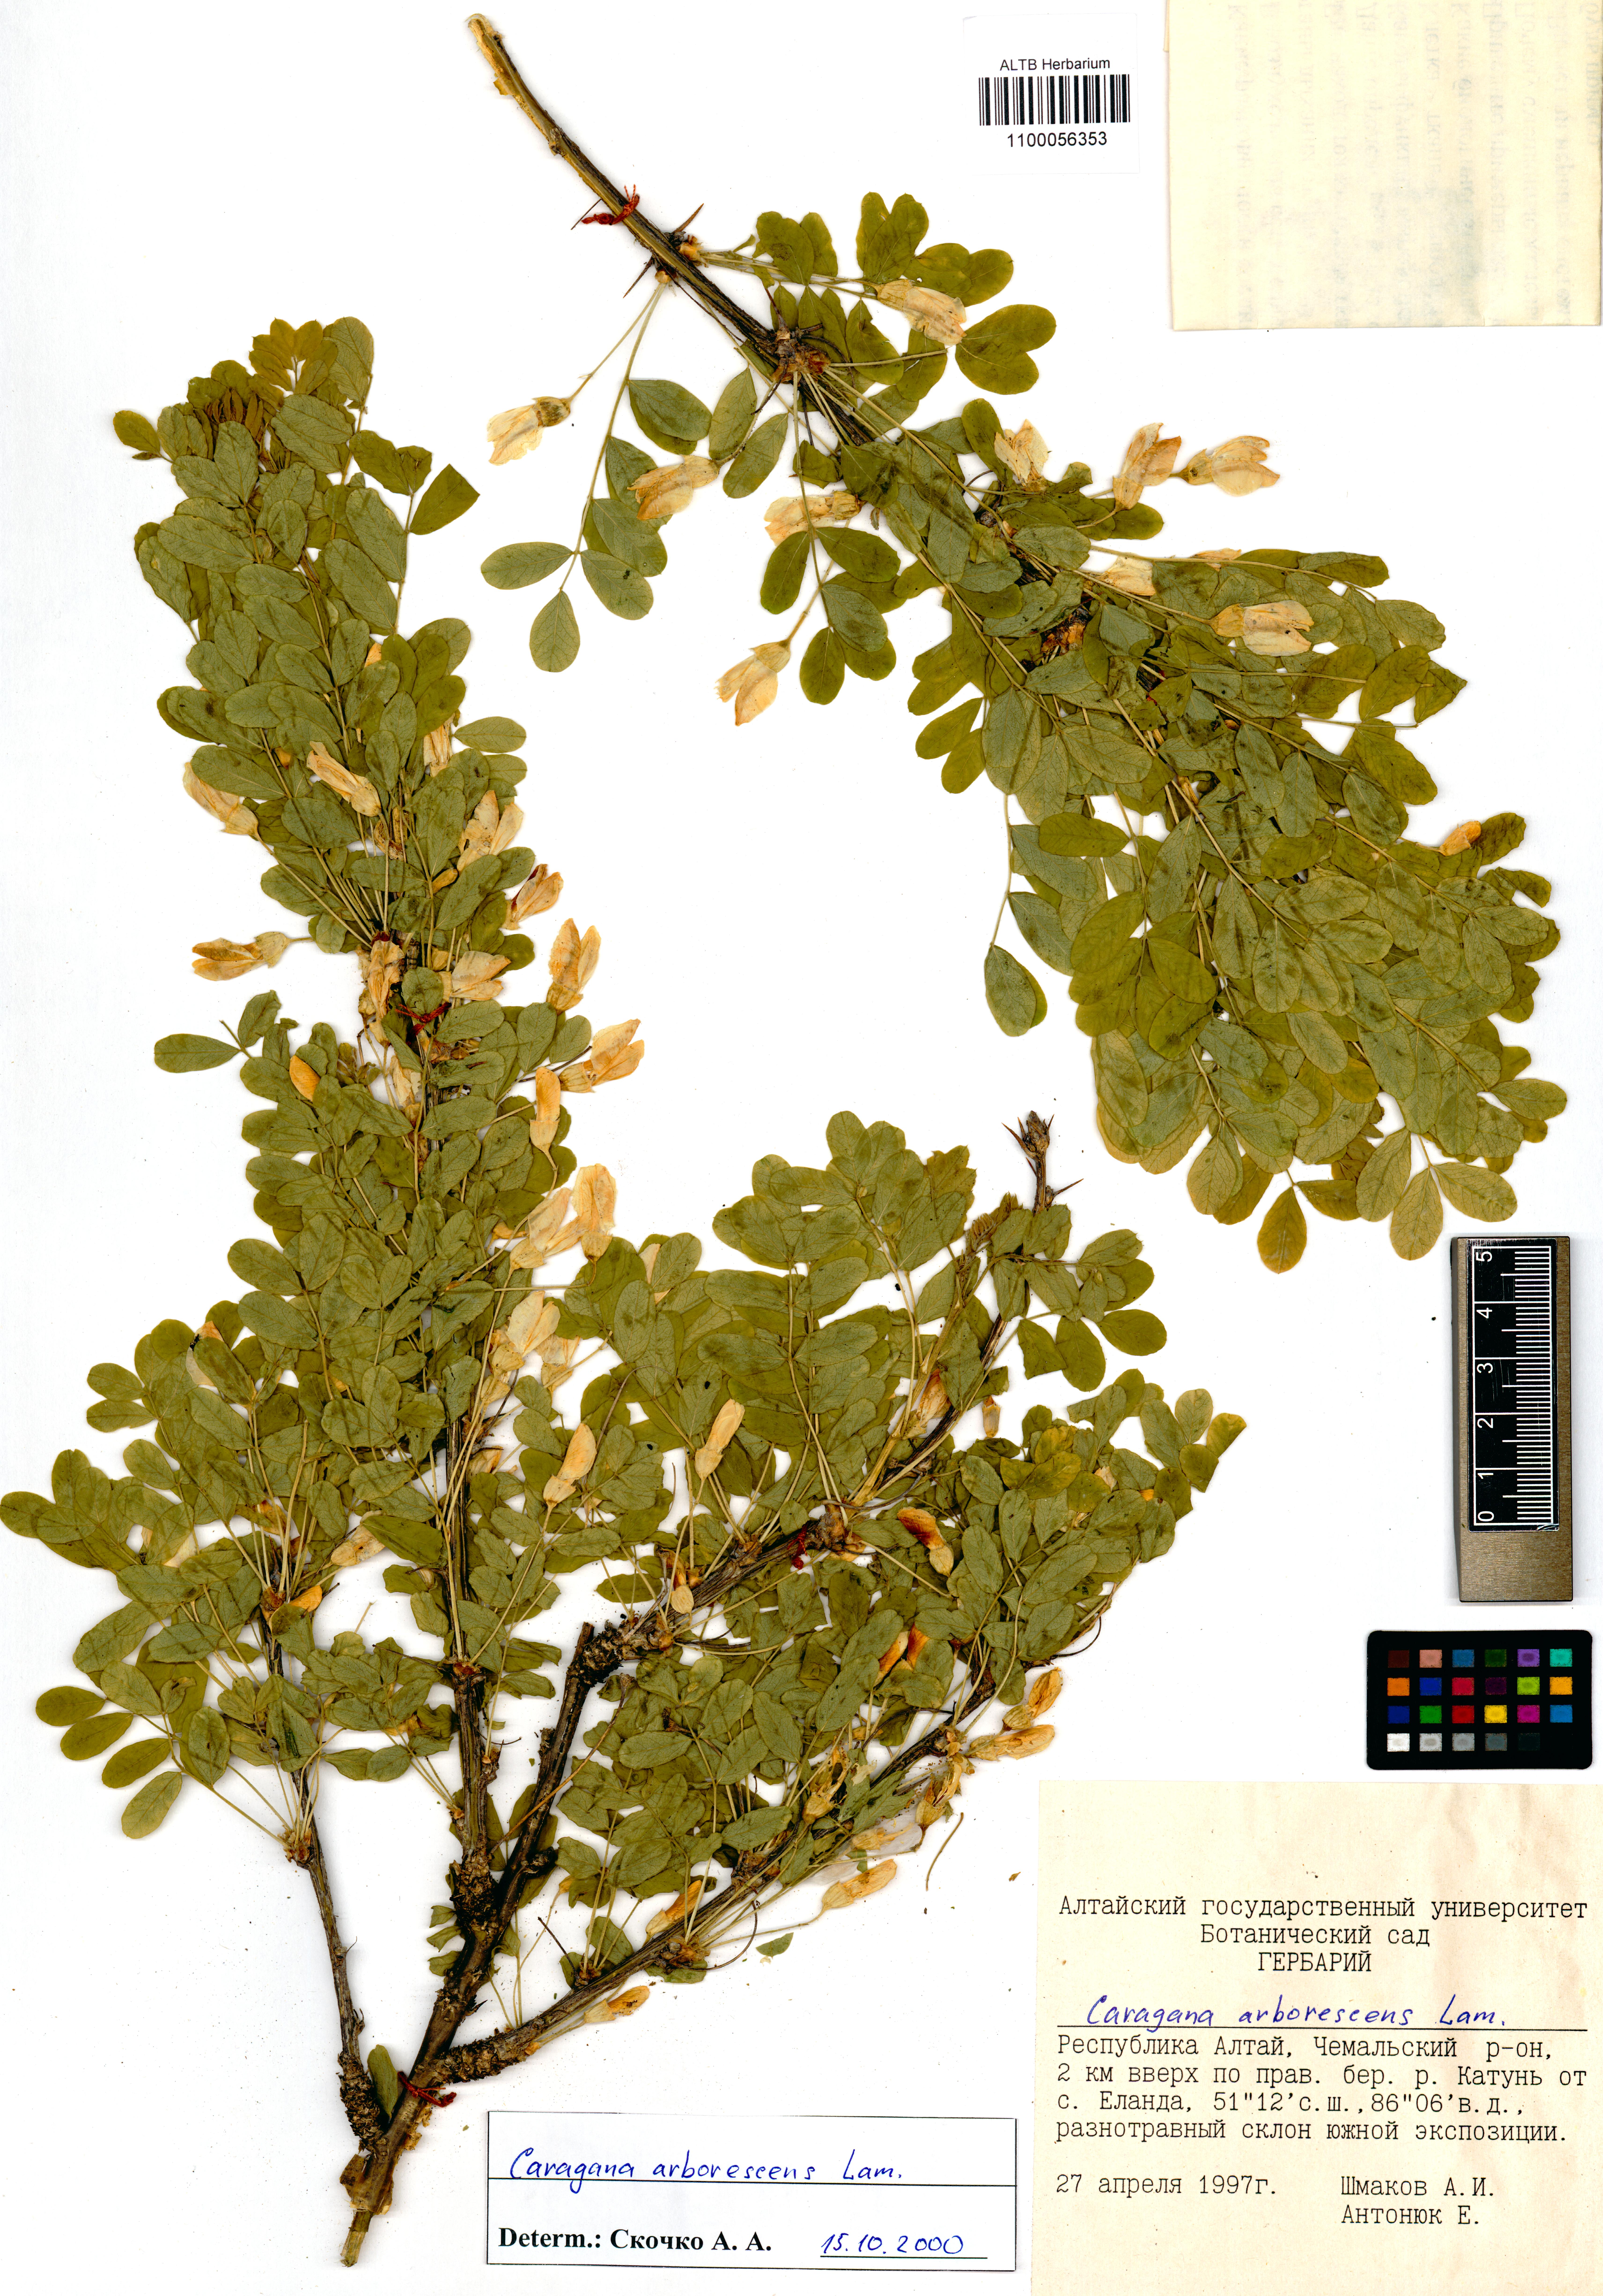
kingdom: Plantae
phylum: Tracheophyta
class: Magnoliopsida
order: Fabales
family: Fabaceae
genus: Caragana
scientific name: Caragana arborescens
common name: Siberian peashrub
